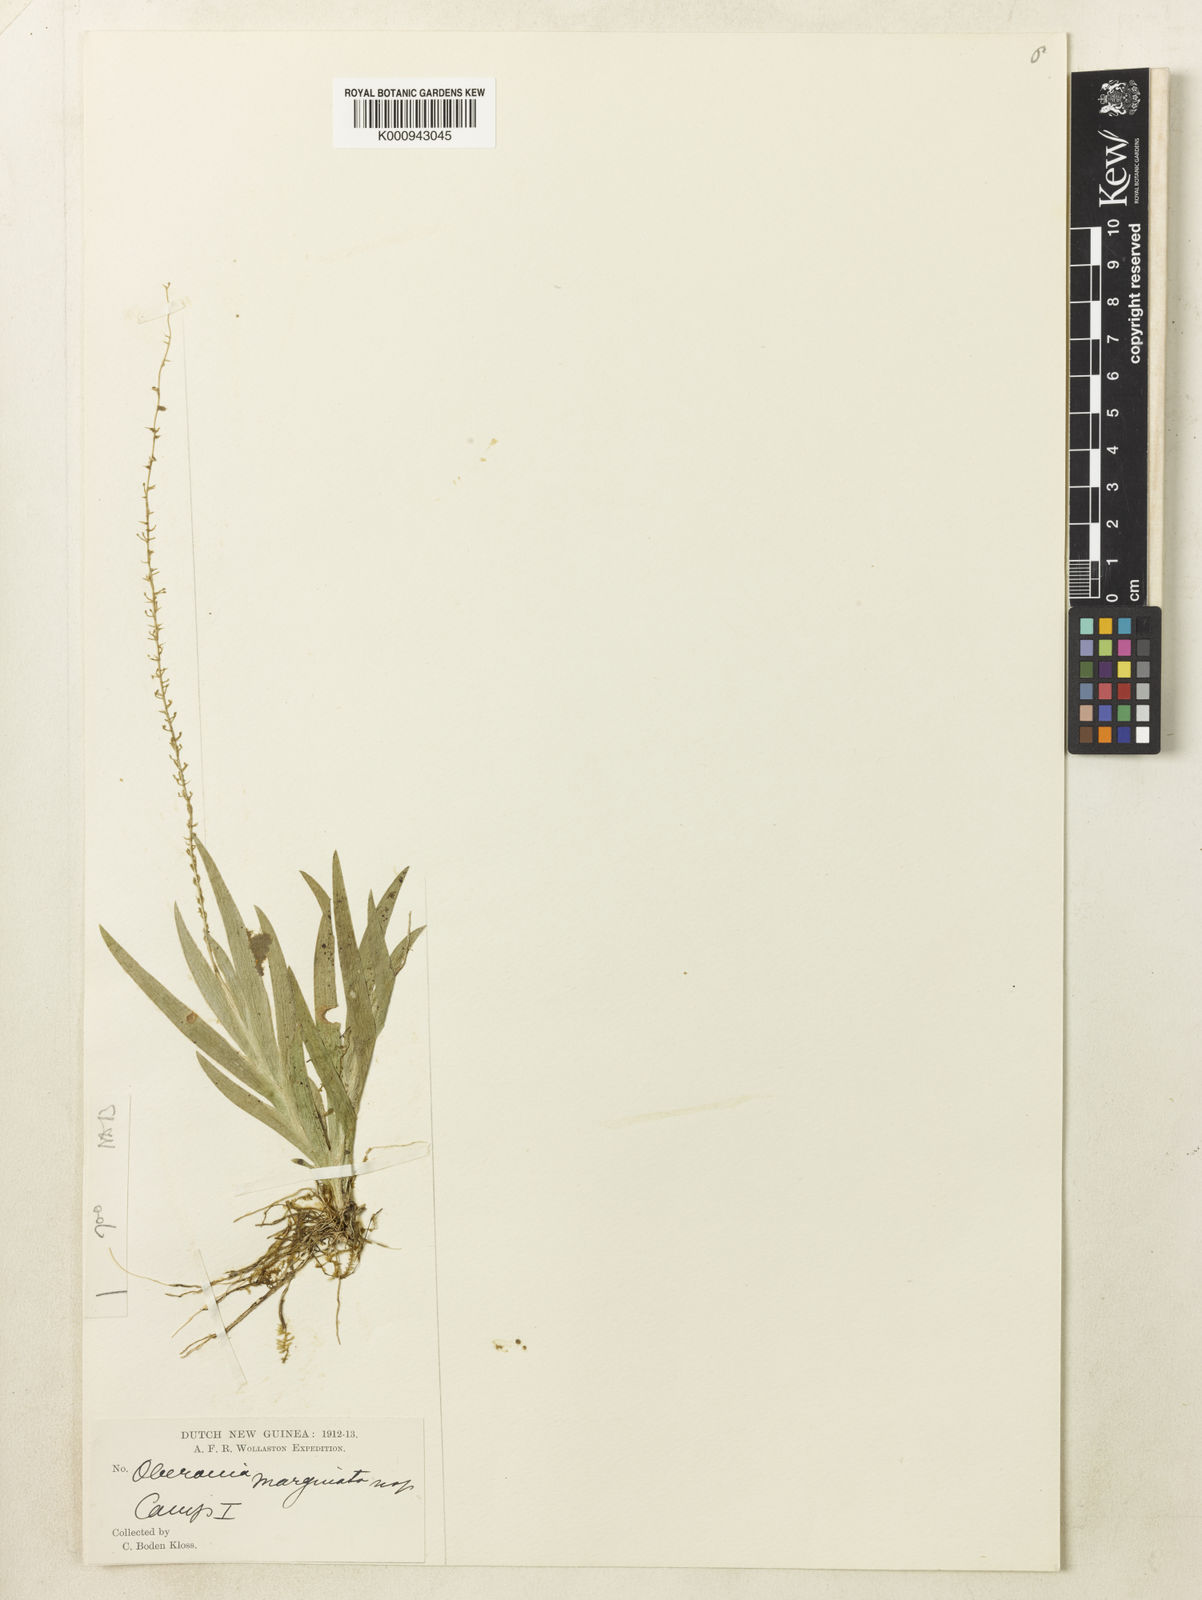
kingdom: Plantae
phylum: Tracheophyta
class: Liliopsida
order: Asparagales
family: Orchidaceae
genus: Oberonia
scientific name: Oberonia marginata
